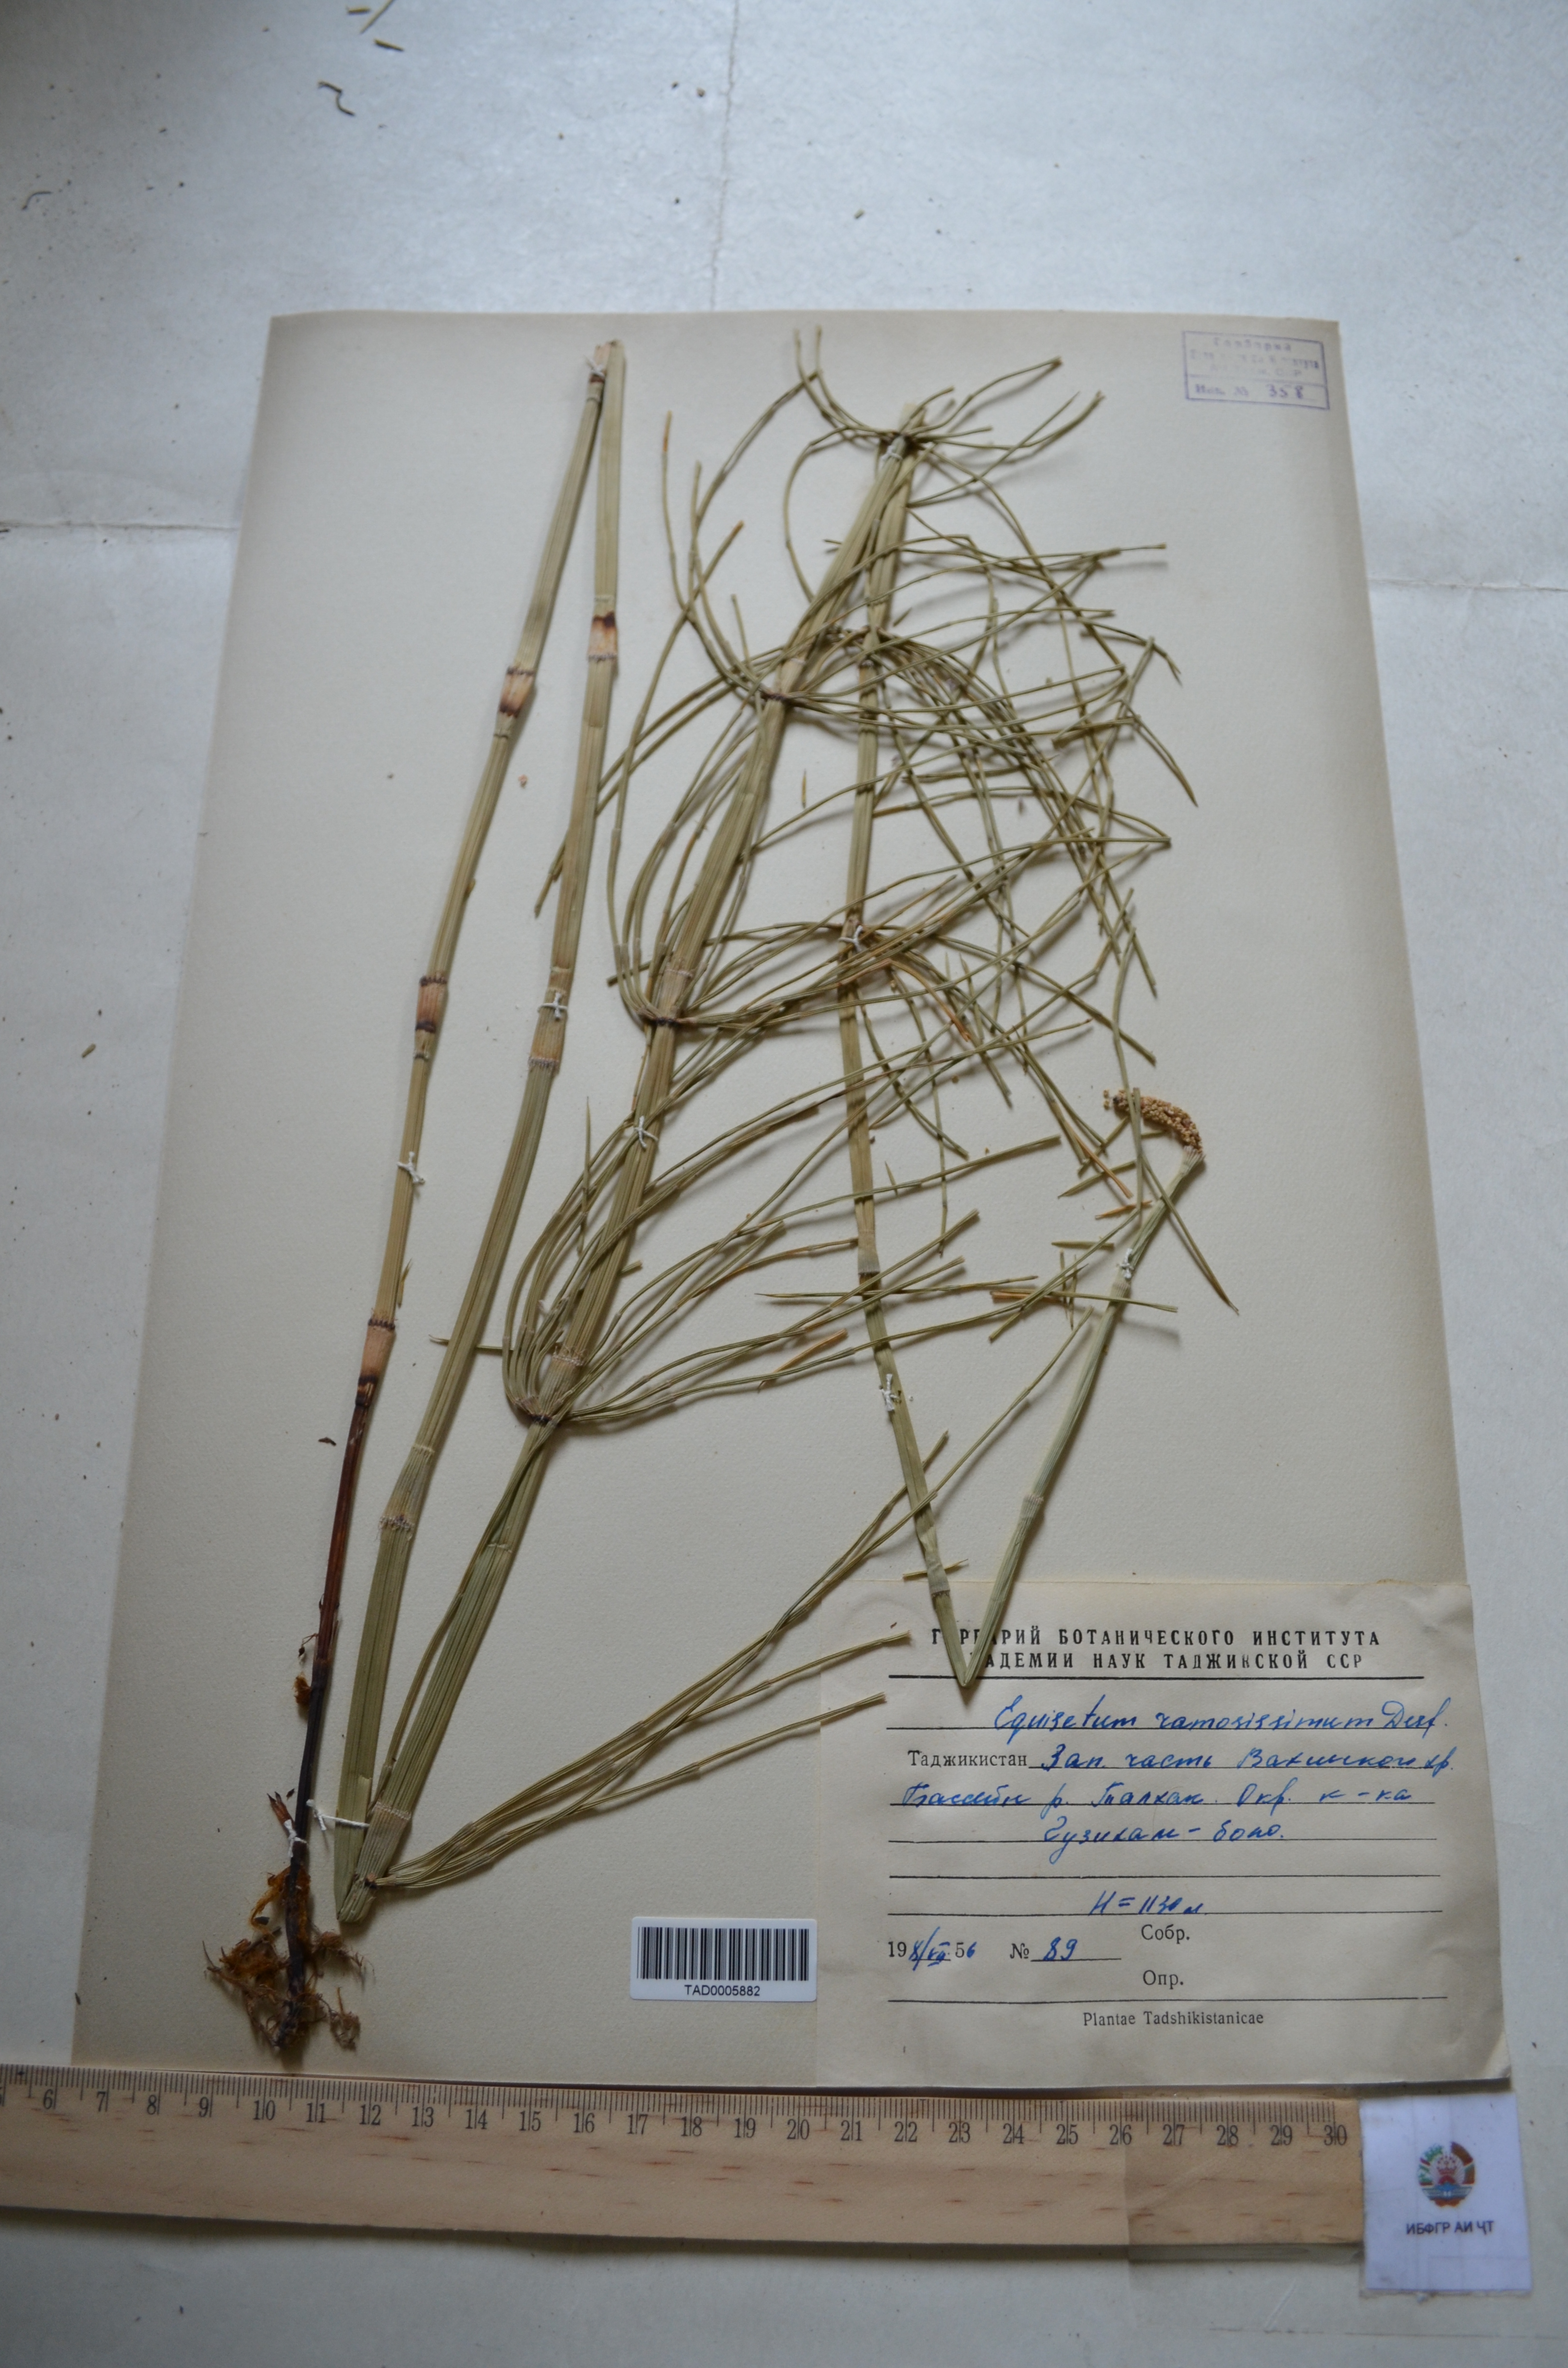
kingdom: Plantae
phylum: Tracheophyta
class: Polypodiopsida
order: Equisetales
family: Equisetaceae
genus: Equisetum
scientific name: Equisetum ramosissimum
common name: Branched horsetail
